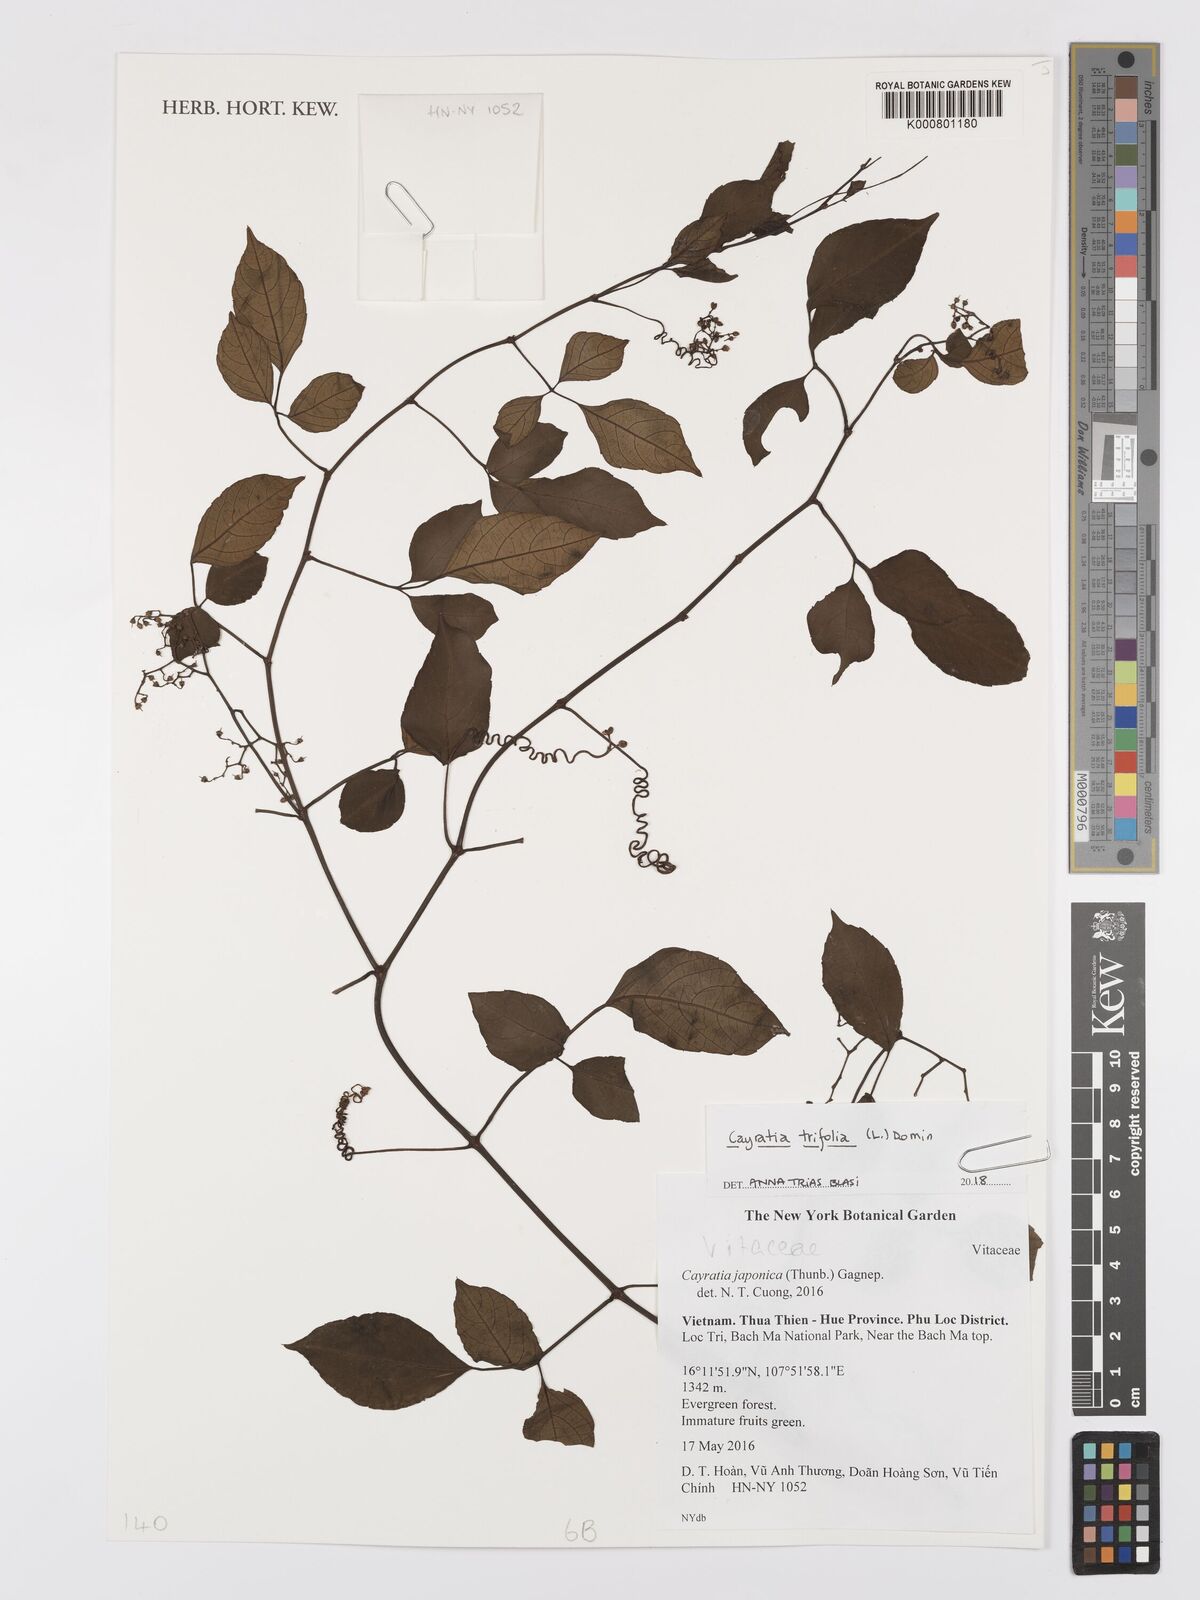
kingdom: Plantae
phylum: Tracheophyta
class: Magnoliopsida
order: Vitales
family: Vitaceae
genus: Causonis
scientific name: Causonis trifolia
